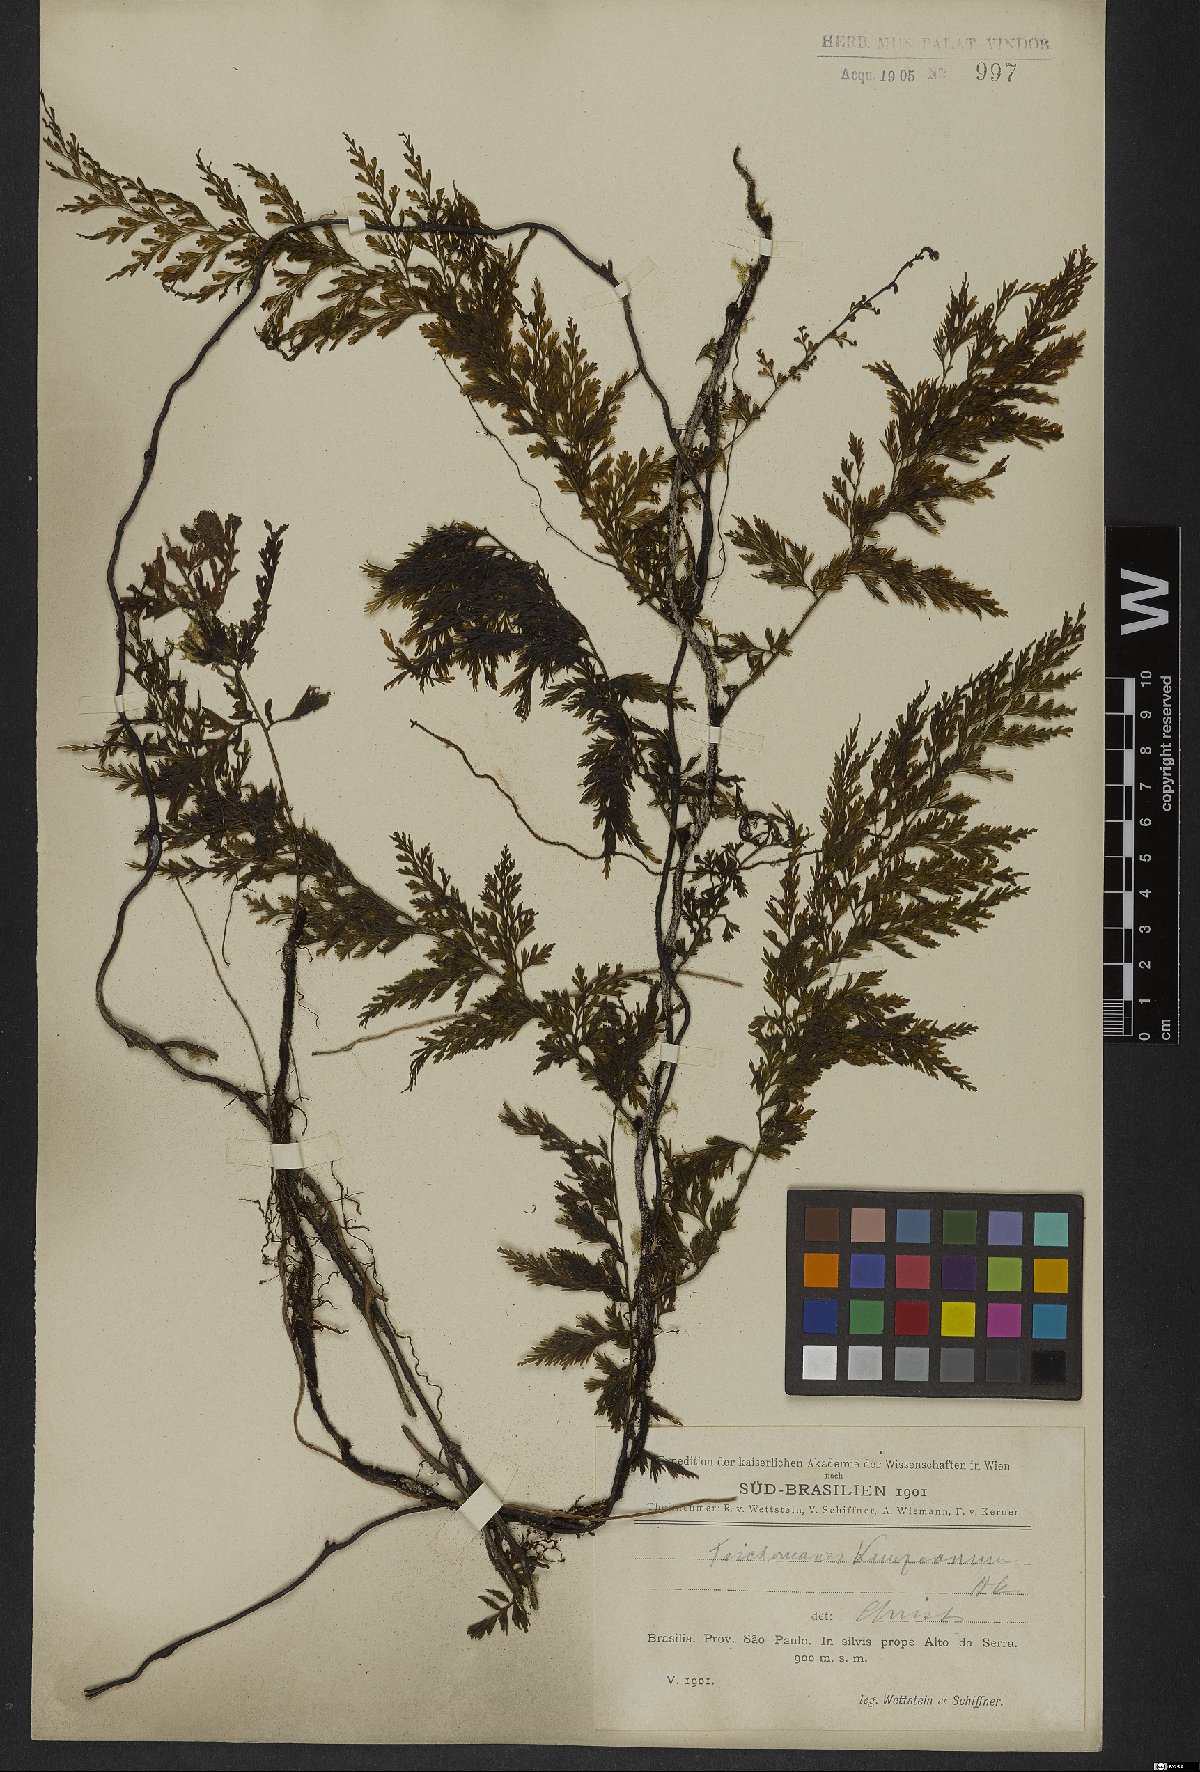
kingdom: Plantae
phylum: Tracheophyta
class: Polypodiopsida
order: Hymenophyllales
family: Hymenophyllaceae
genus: Vandenboschia
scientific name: Vandenboschia radicans
